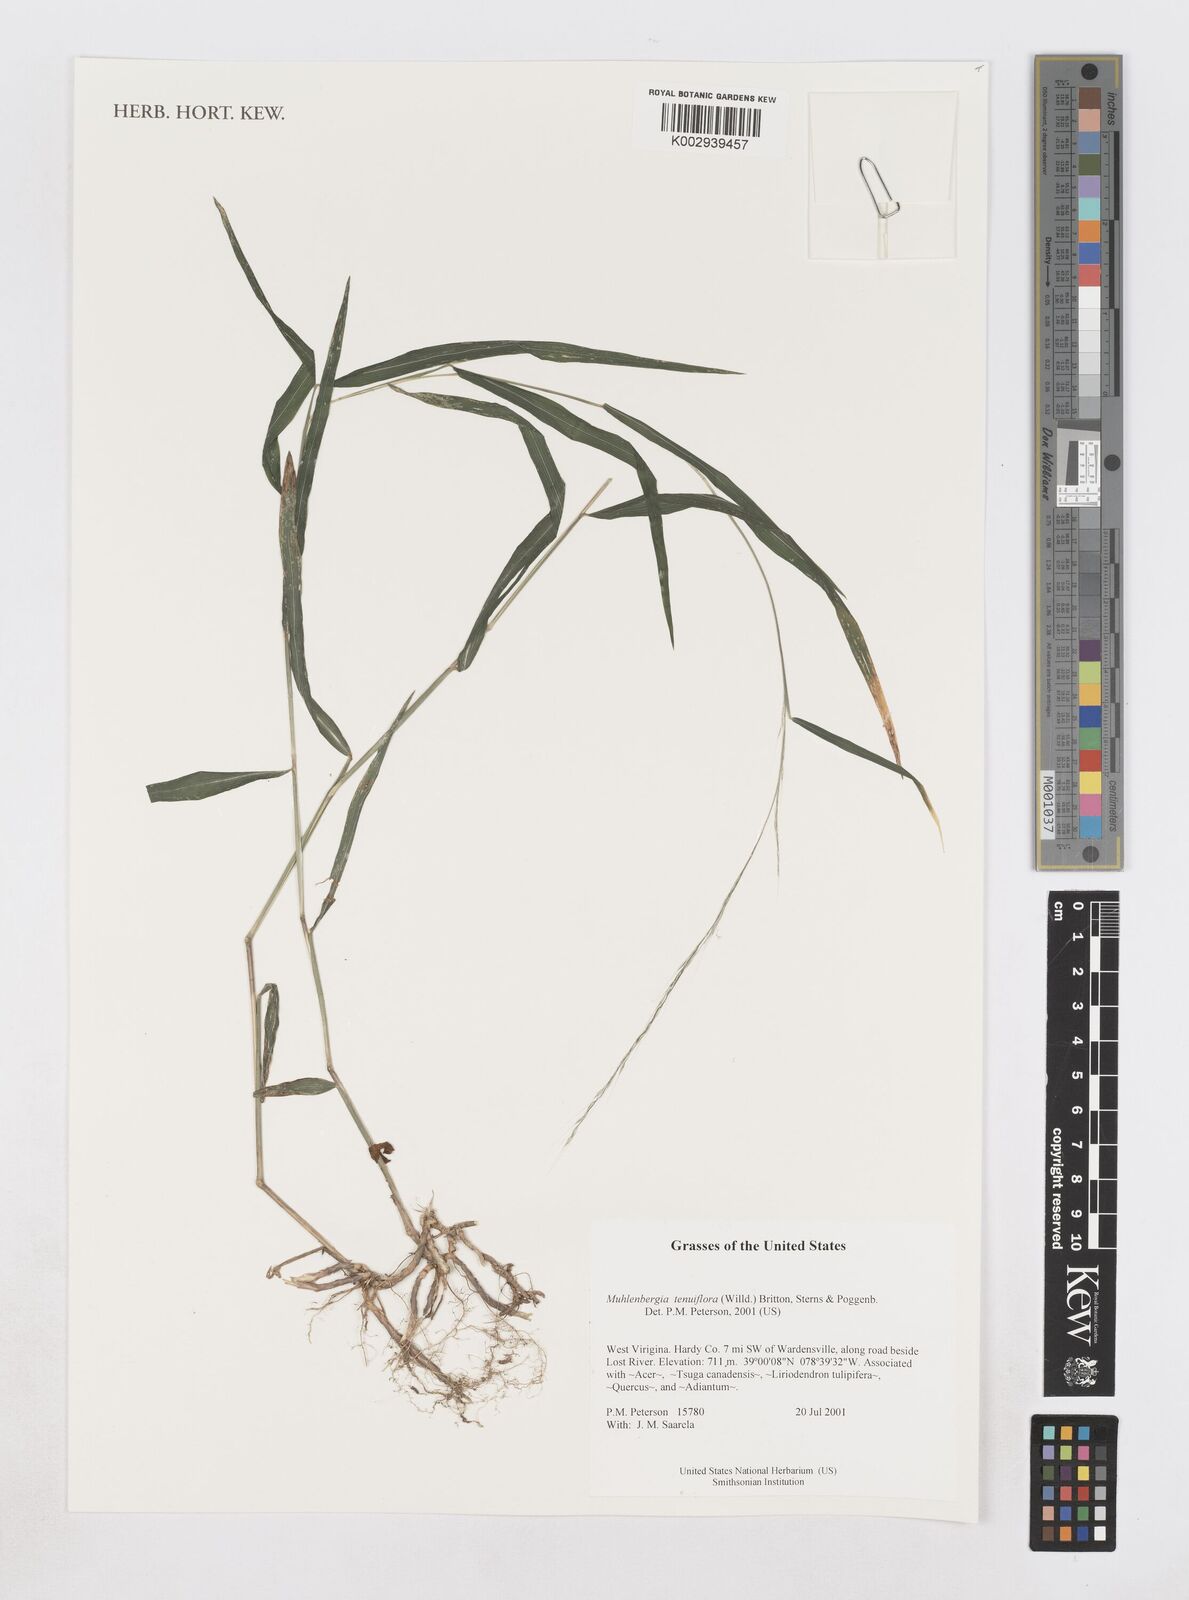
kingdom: Plantae
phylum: Tracheophyta
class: Liliopsida
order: Poales
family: Poaceae
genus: Muhlenbergia
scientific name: Muhlenbergia tenuiflora
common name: Slender muhly
